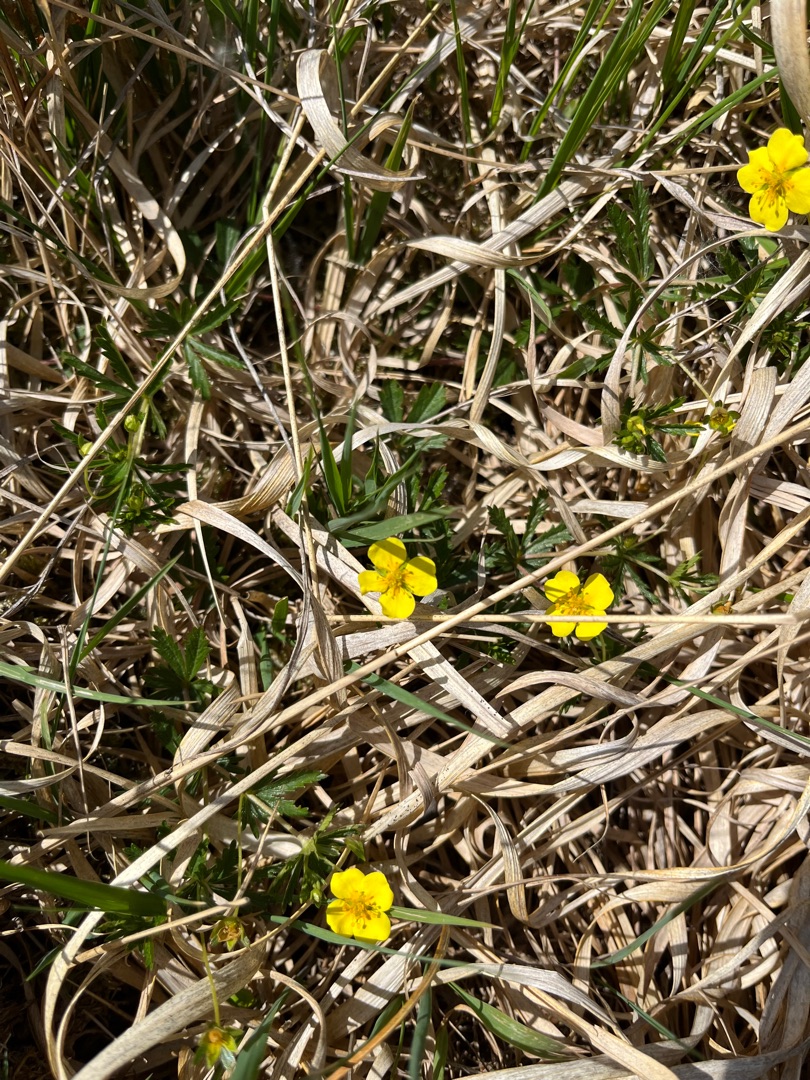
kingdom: Plantae
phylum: Tracheophyta
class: Magnoliopsida
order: Rosales
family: Rosaceae
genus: Potentilla
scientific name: Potentilla erecta
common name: Tormentil
